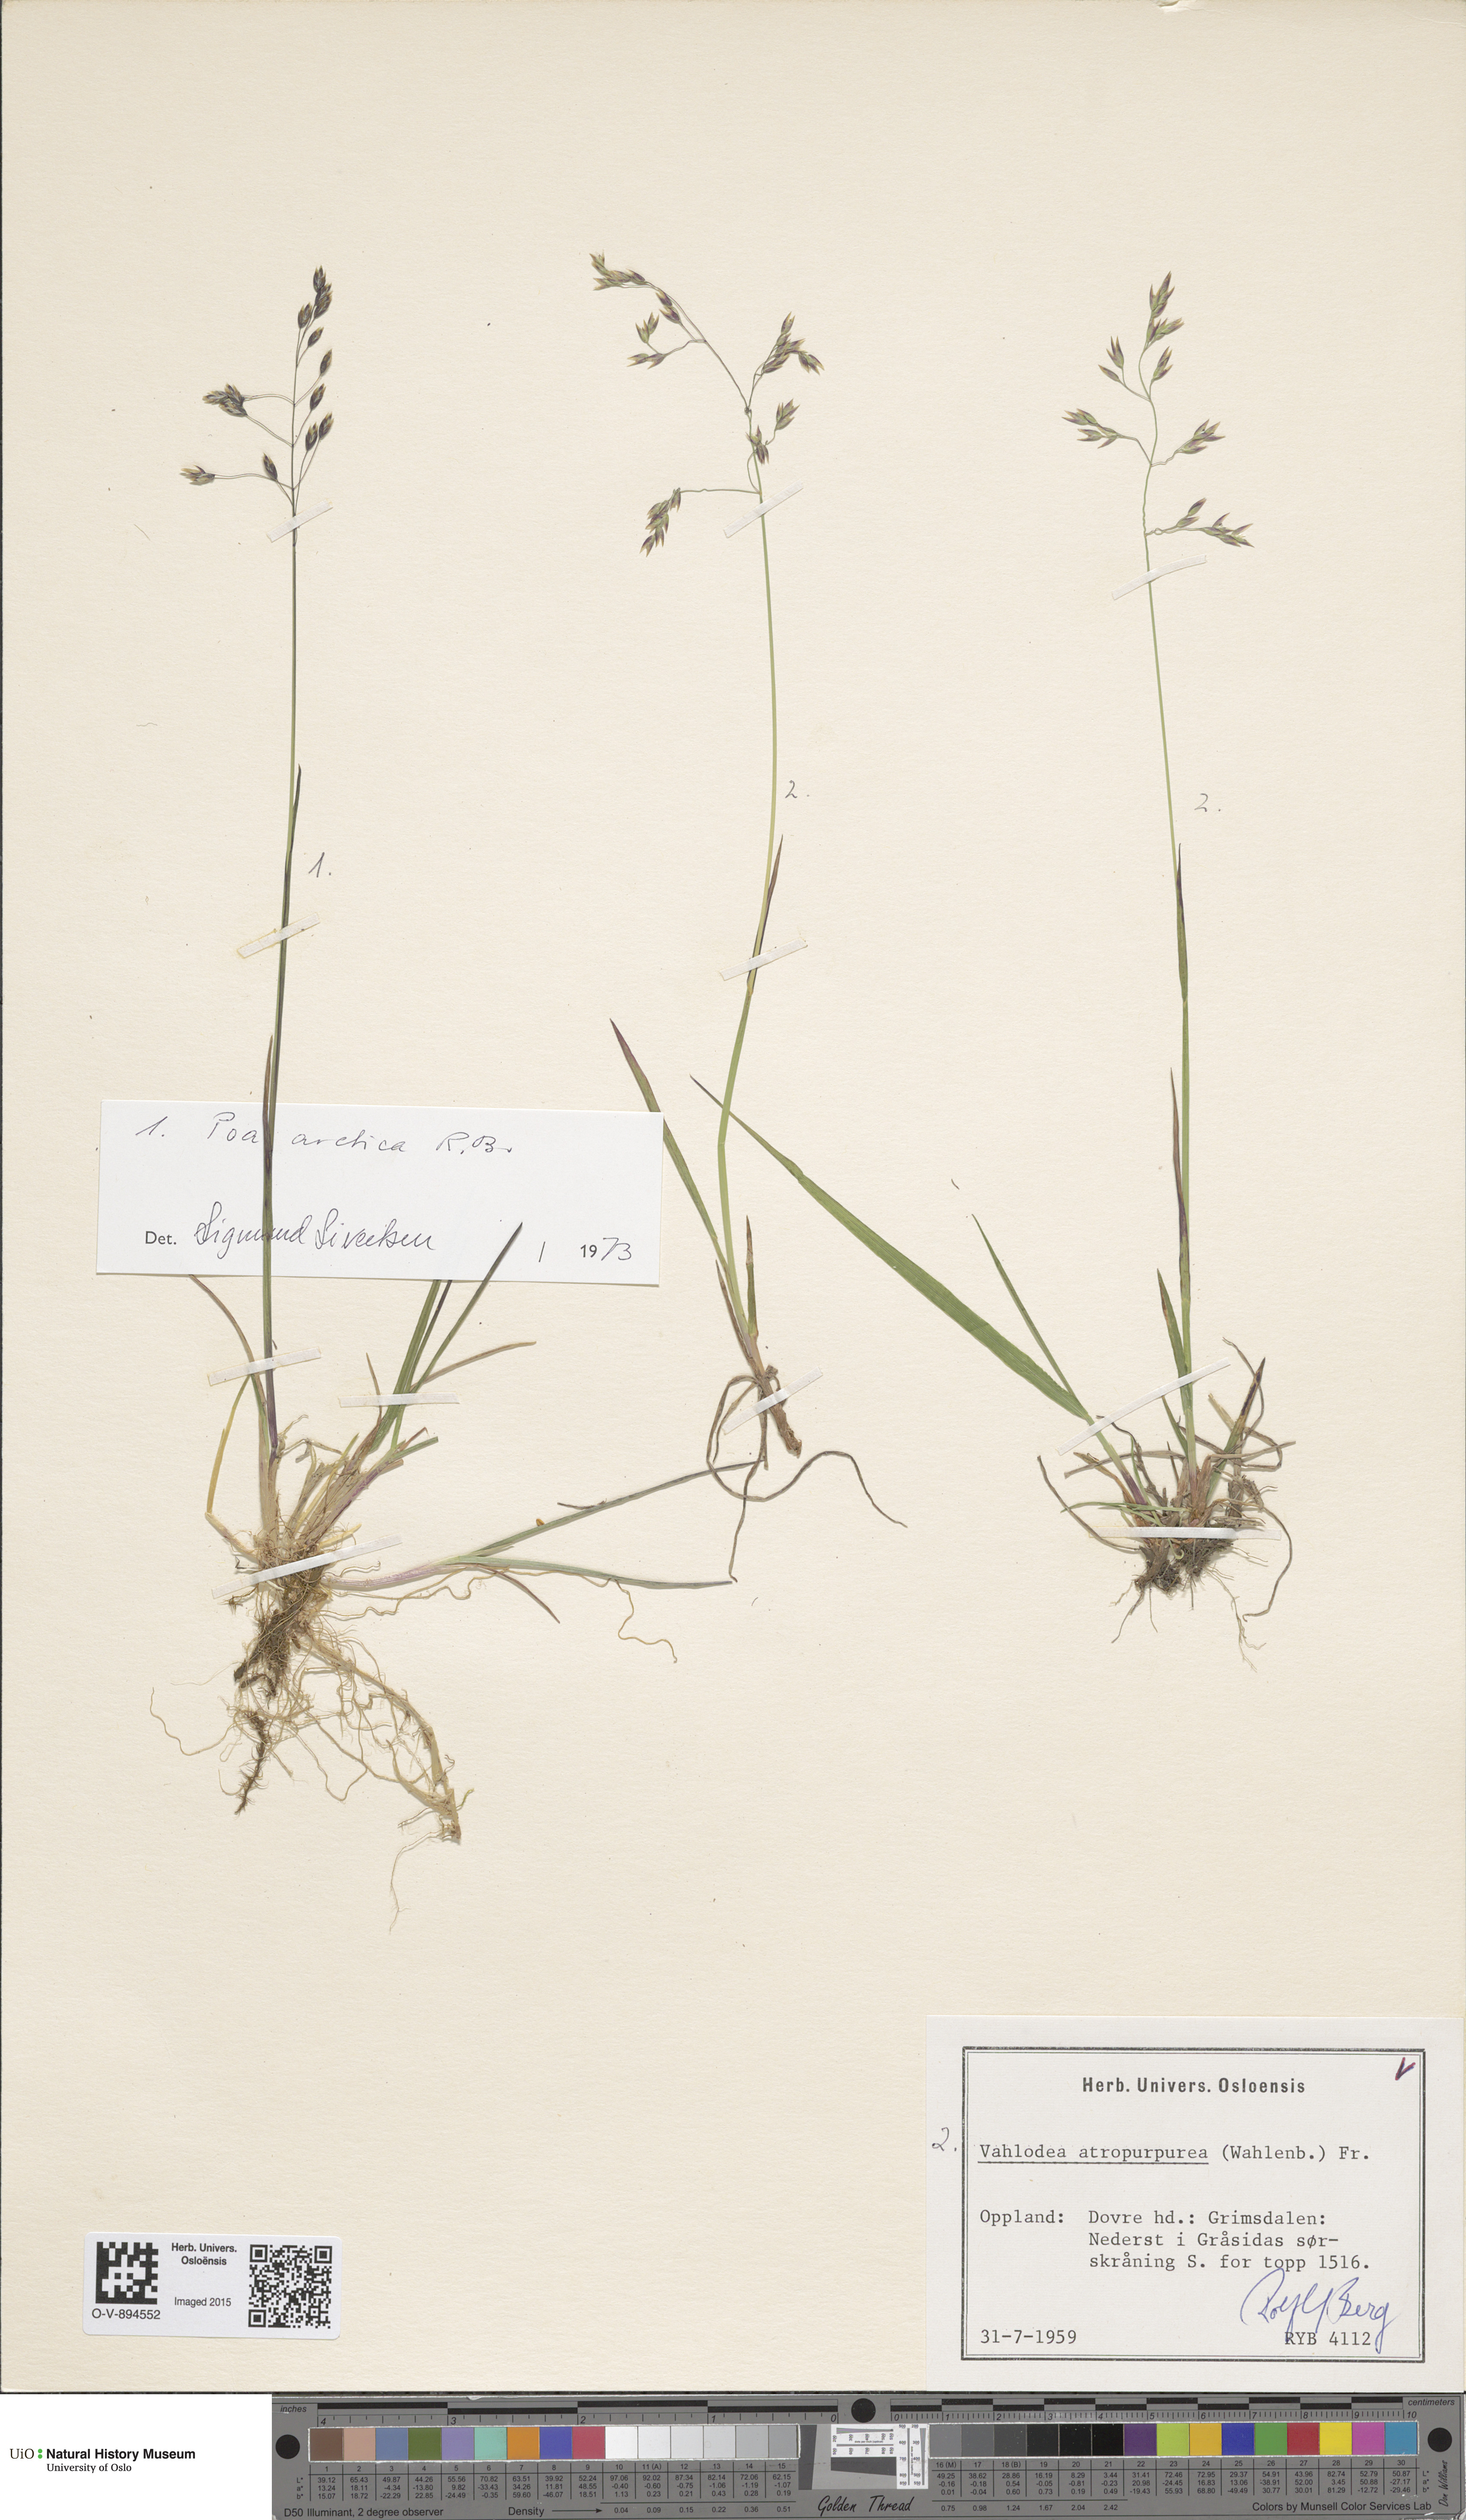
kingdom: Plantae
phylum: Tracheophyta
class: Liliopsida
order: Poales
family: Poaceae
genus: Poa
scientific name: Poa arctica
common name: Arctic bluegrass
